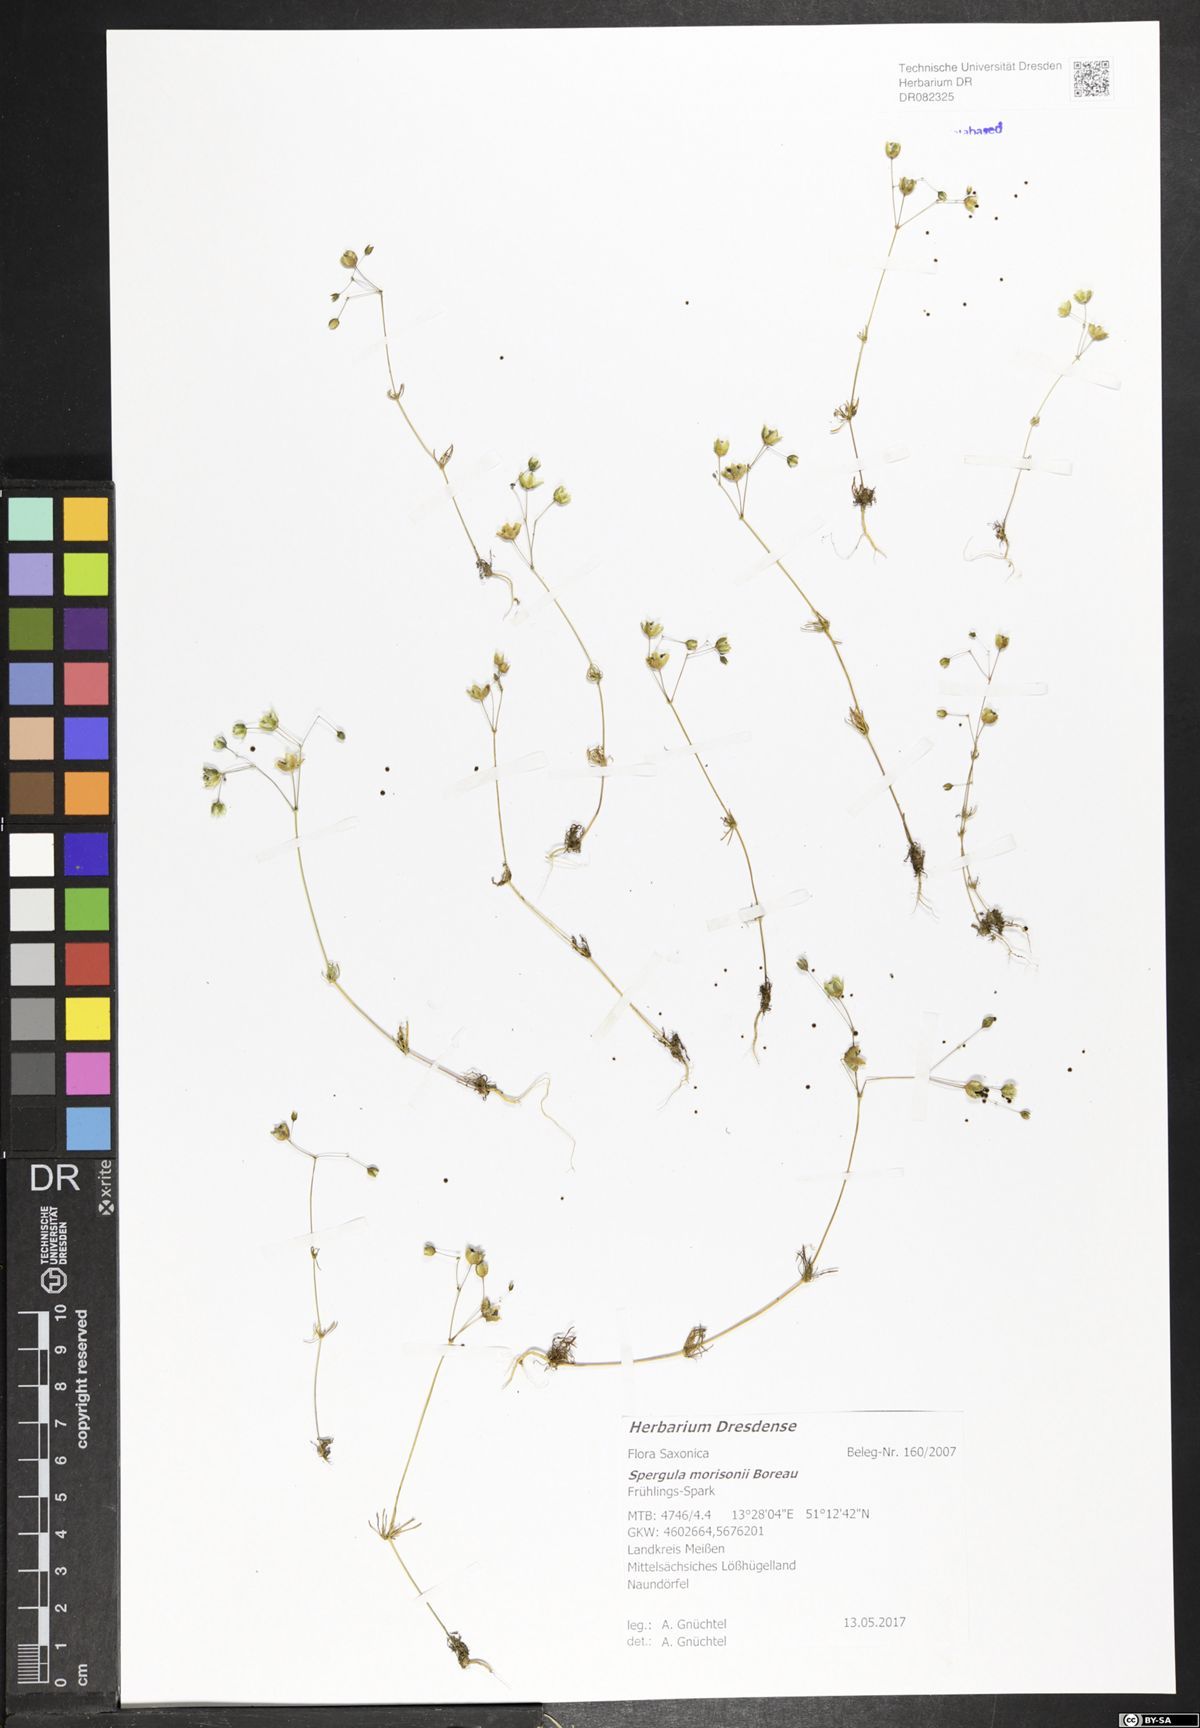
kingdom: Plantae
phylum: Tracheophyta
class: Magnoliopsida
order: Caryophyllales
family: Caryophyllaceae
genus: Spergula
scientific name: Spergula morisonii
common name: Pearlwort spurrey
